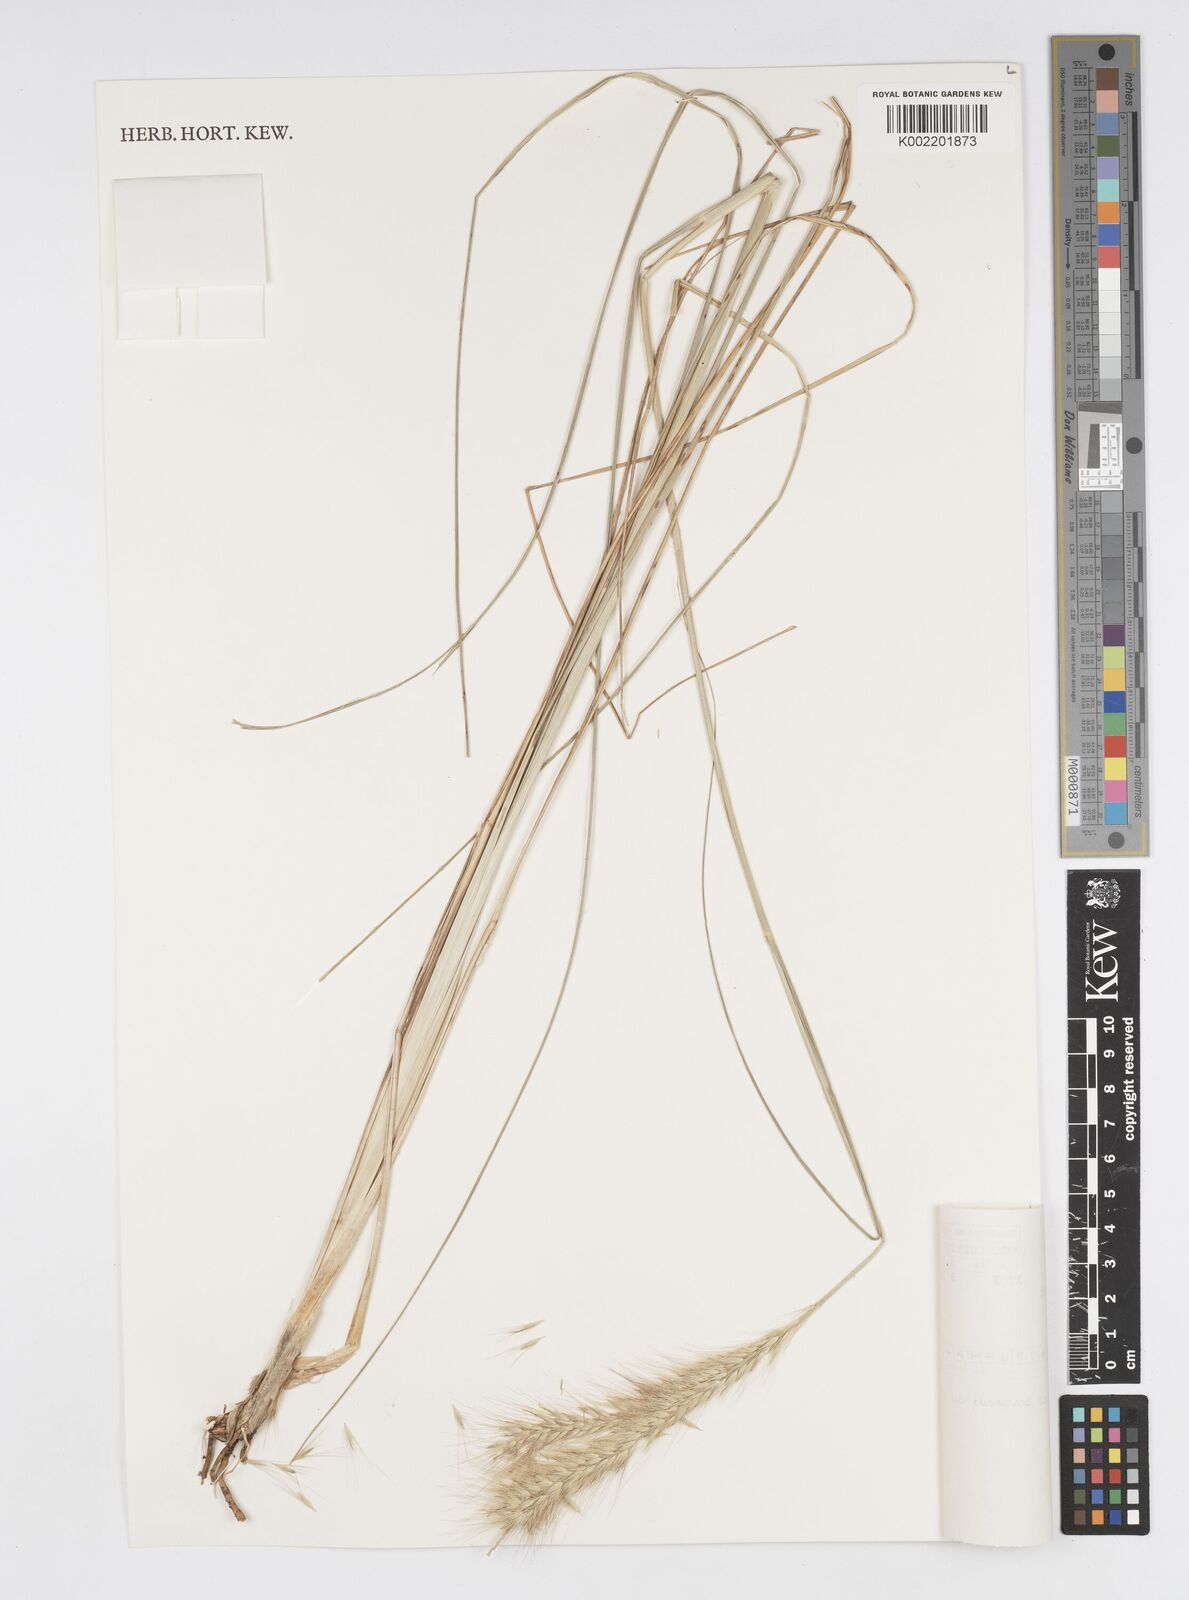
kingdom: Plantae
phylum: Tracheophyta
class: Liliopsida
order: Poales
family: Poaceae
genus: Cenchrus
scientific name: Cenchrus alopecuroides
